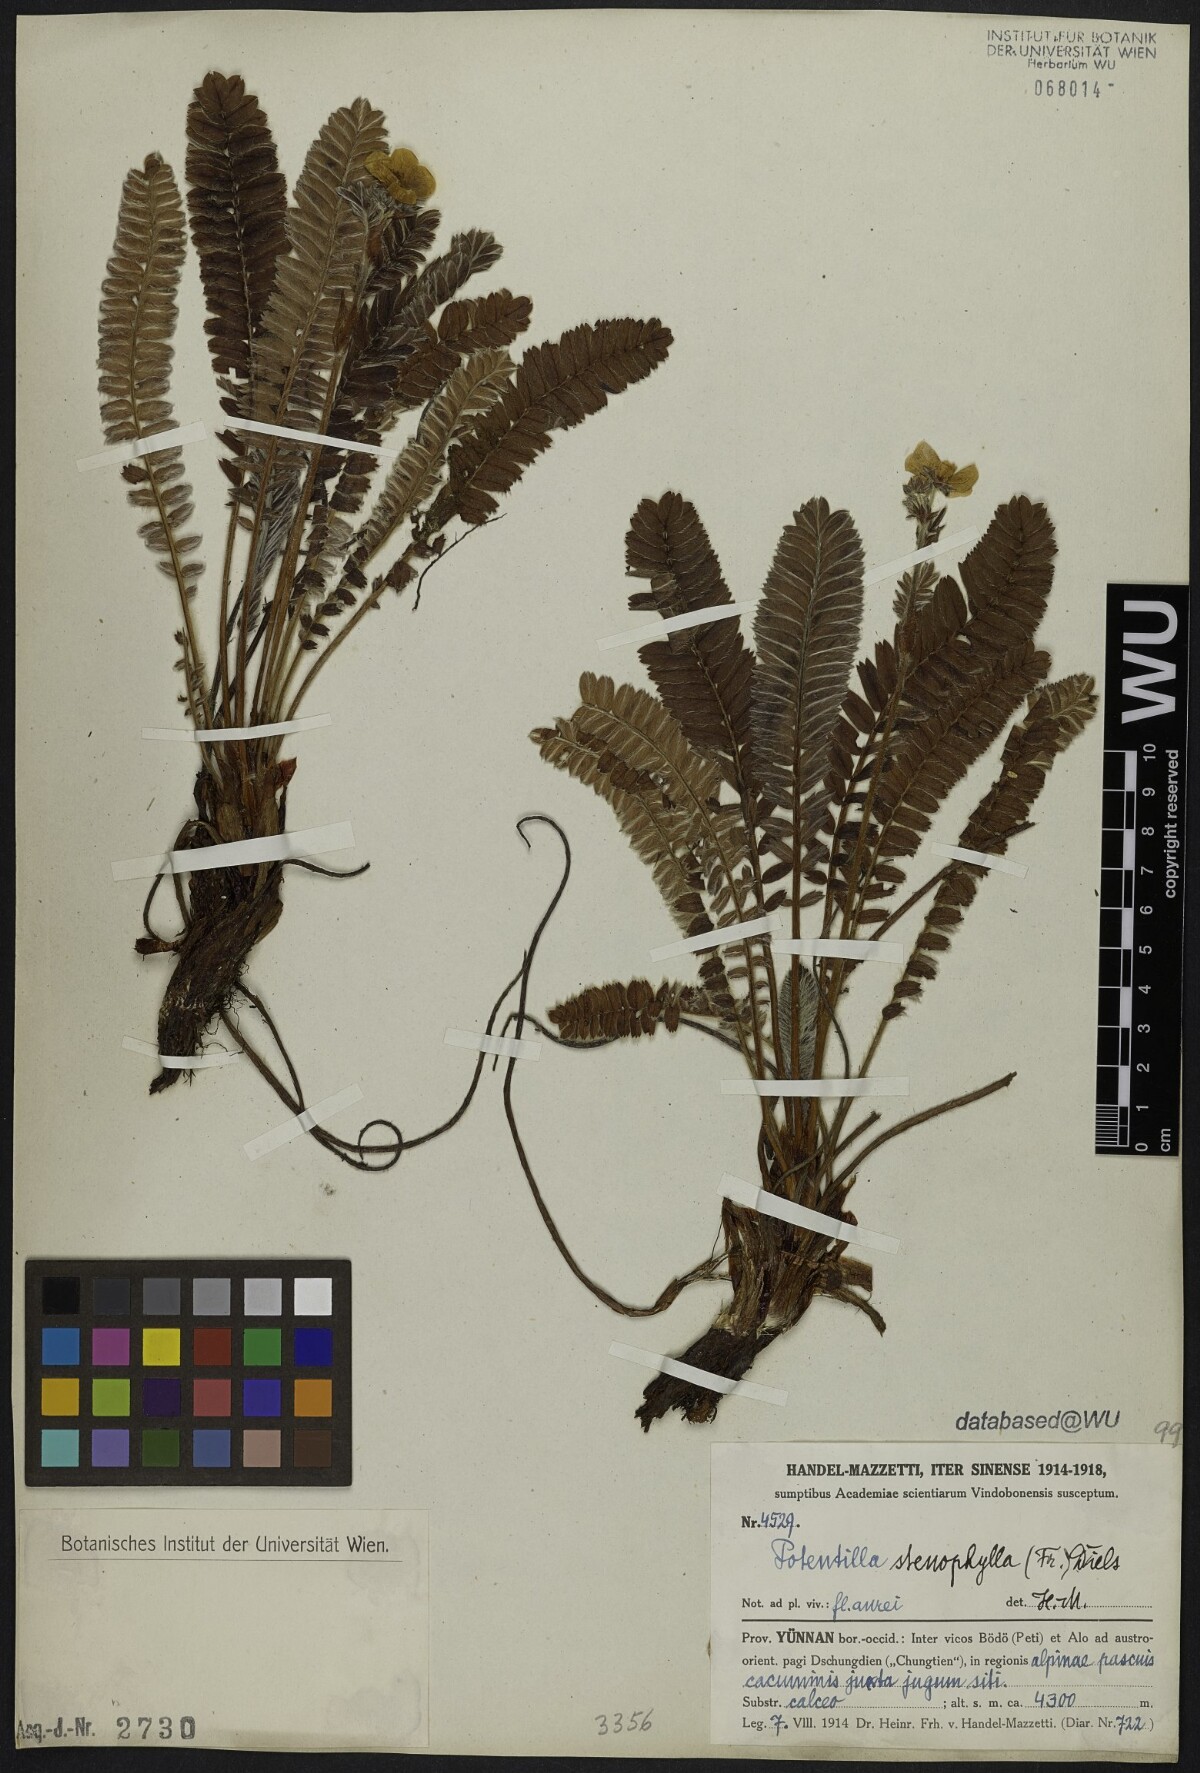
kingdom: Plantae
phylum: Tracheophyta
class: Magnoliopsida
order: Rosales
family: Rosaceae
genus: Argentina
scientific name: Argentina stenophylla
